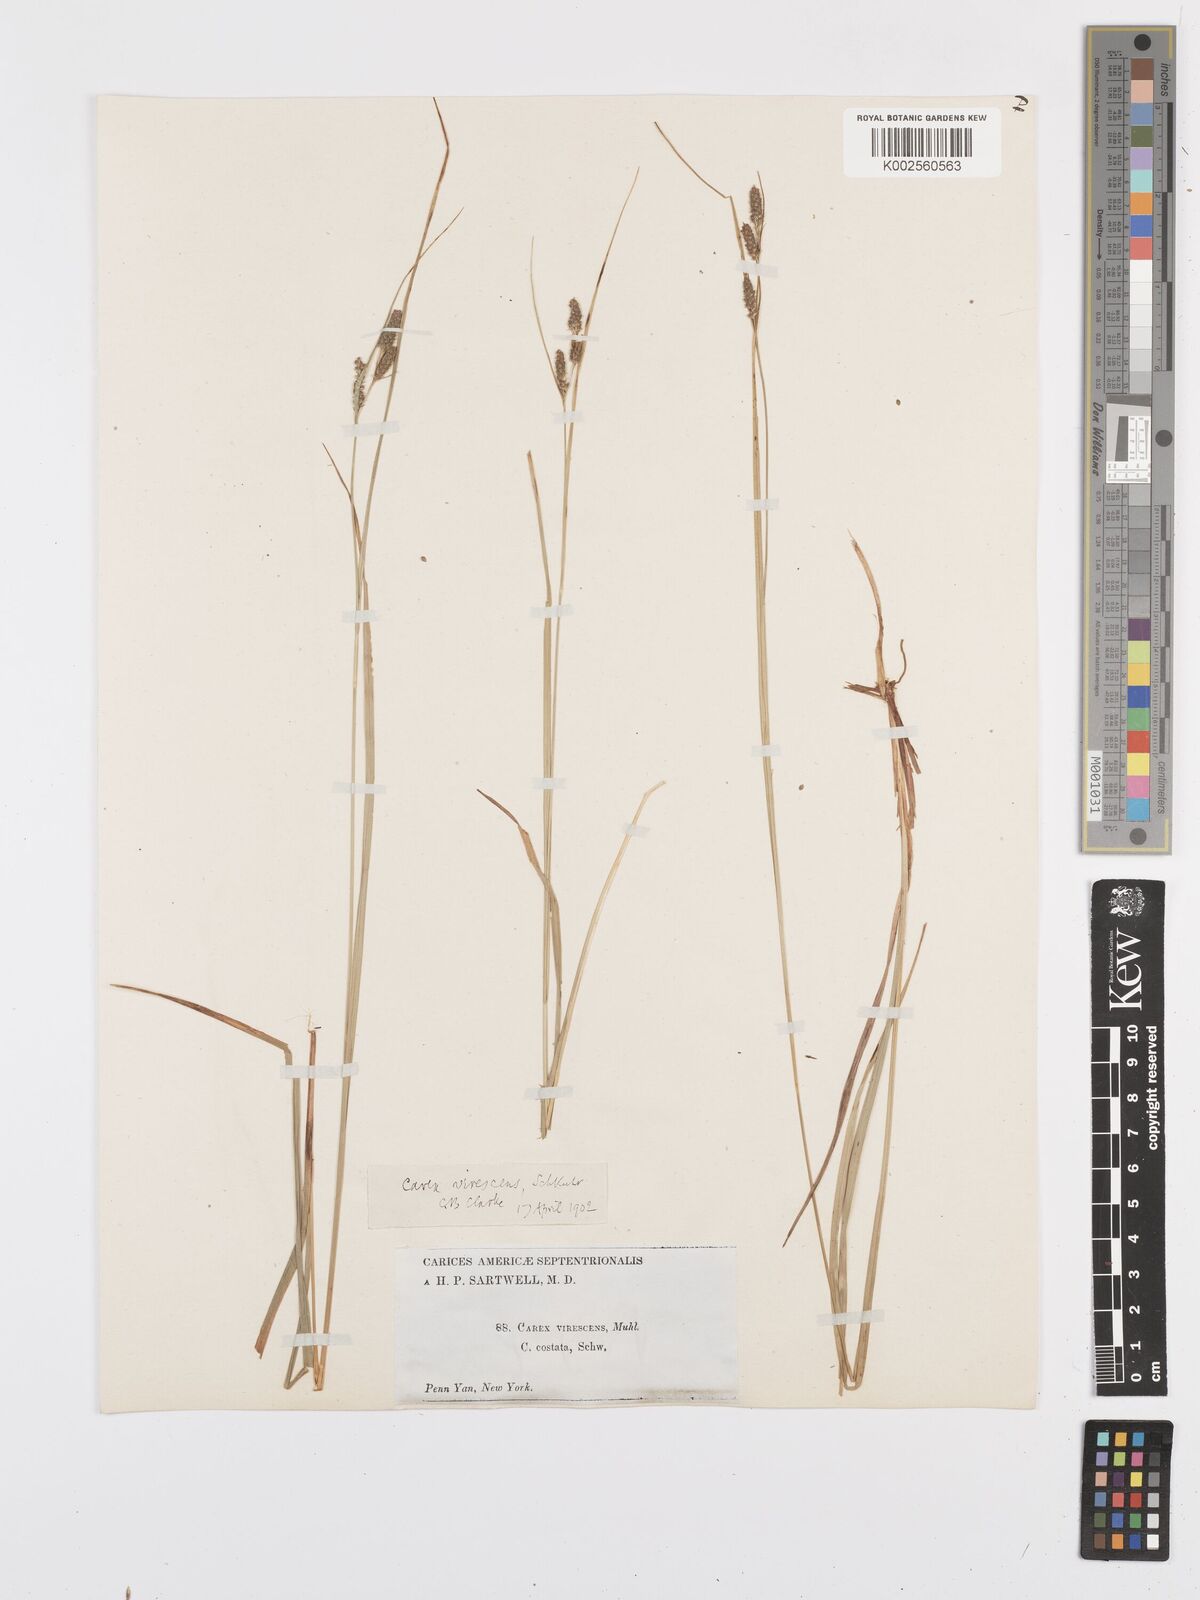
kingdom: Plantae
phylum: Tracheophyta
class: Liliopsida
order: Poales
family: Cyperaceae
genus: Carex
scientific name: Carex virescens
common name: Ribbed sedge
